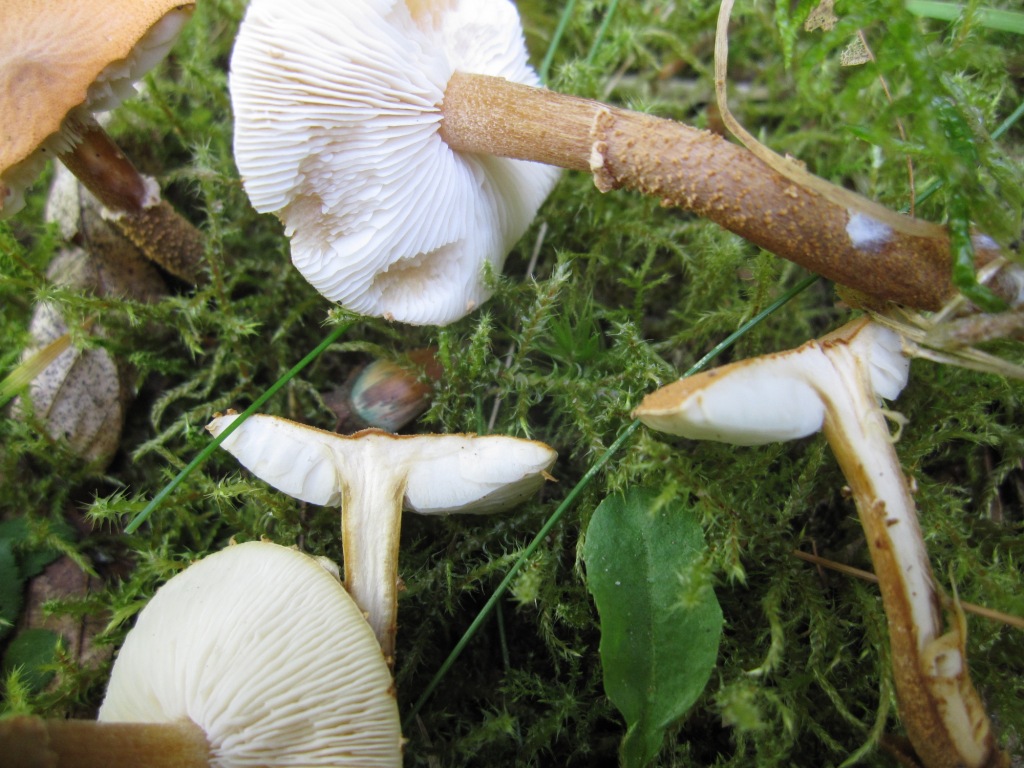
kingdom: Fungi
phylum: Basidiomycota
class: Agaricomycetes
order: Agaricales
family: Tricholomataceae
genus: Cystoderma
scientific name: Cystoderma amianthinum
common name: okkergul grynhat
